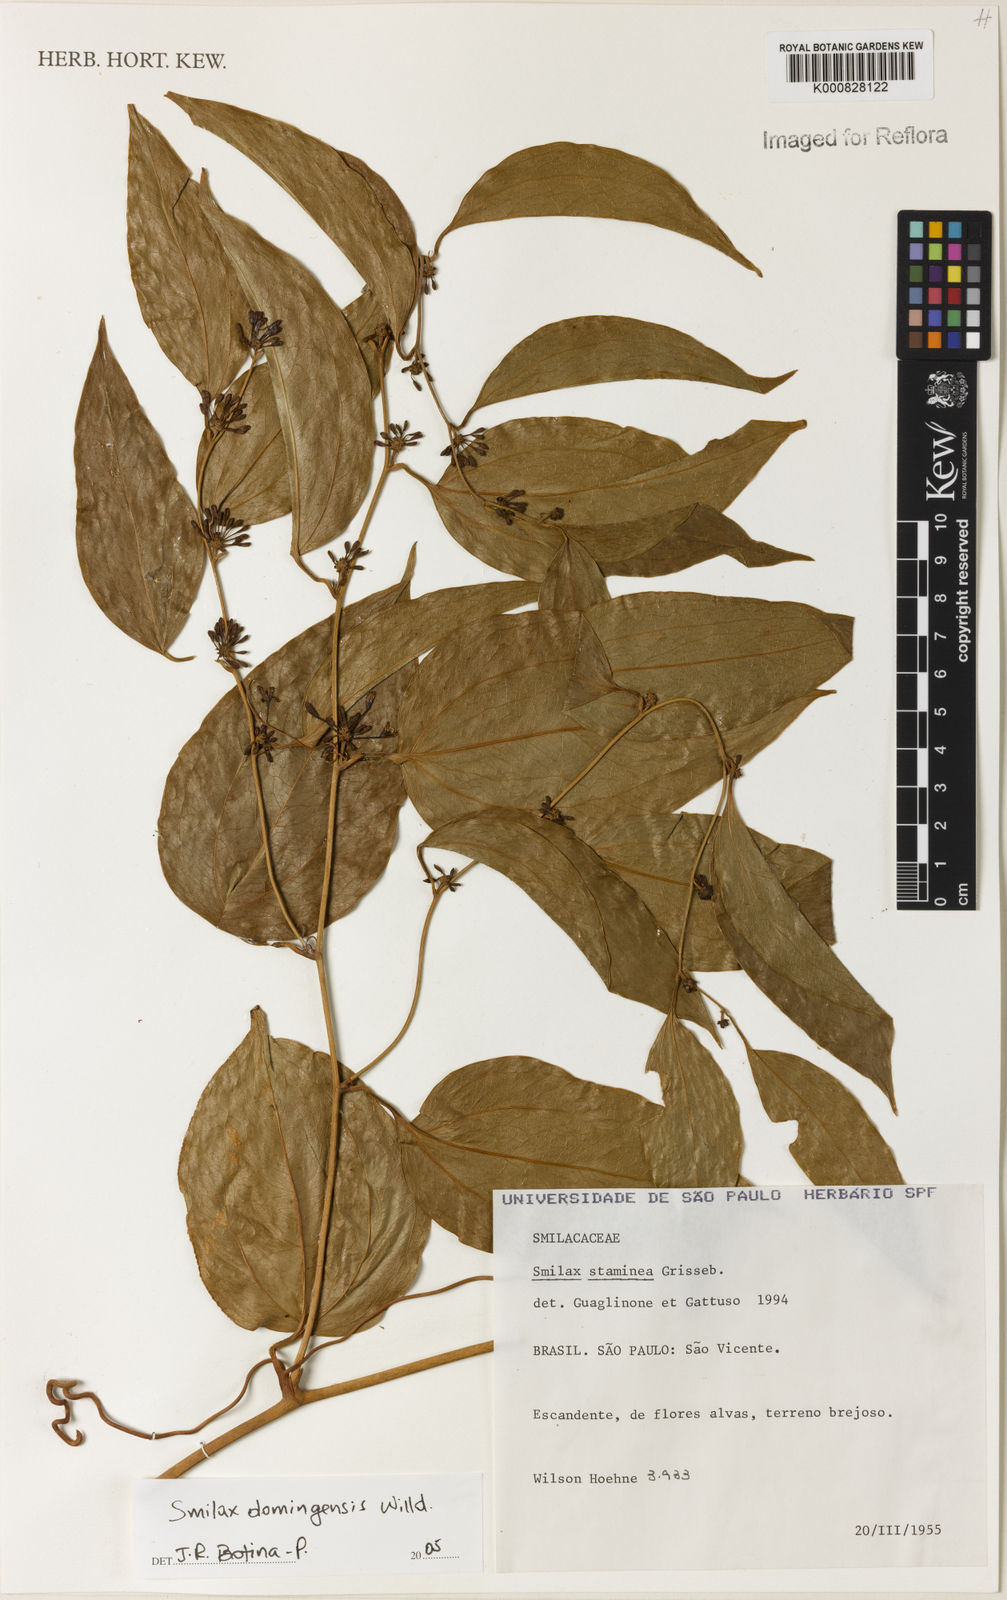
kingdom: Plantae
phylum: Tracheophyta
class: Liliopsida
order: Liliales
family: Smilacaceae
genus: Smilax
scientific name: Smilax domingensis
